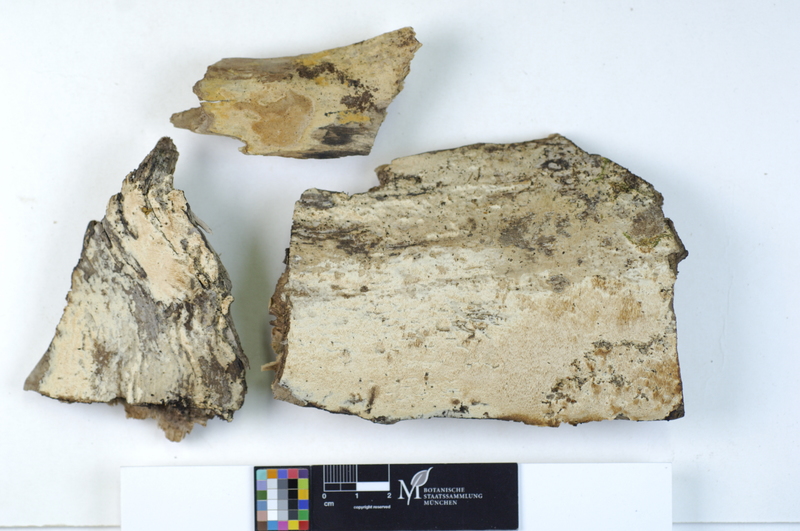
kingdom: Plantae
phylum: Tracheophyta
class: Magnoliopsida
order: Malpighiales
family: Salicaceae
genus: Populus
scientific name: Populus
